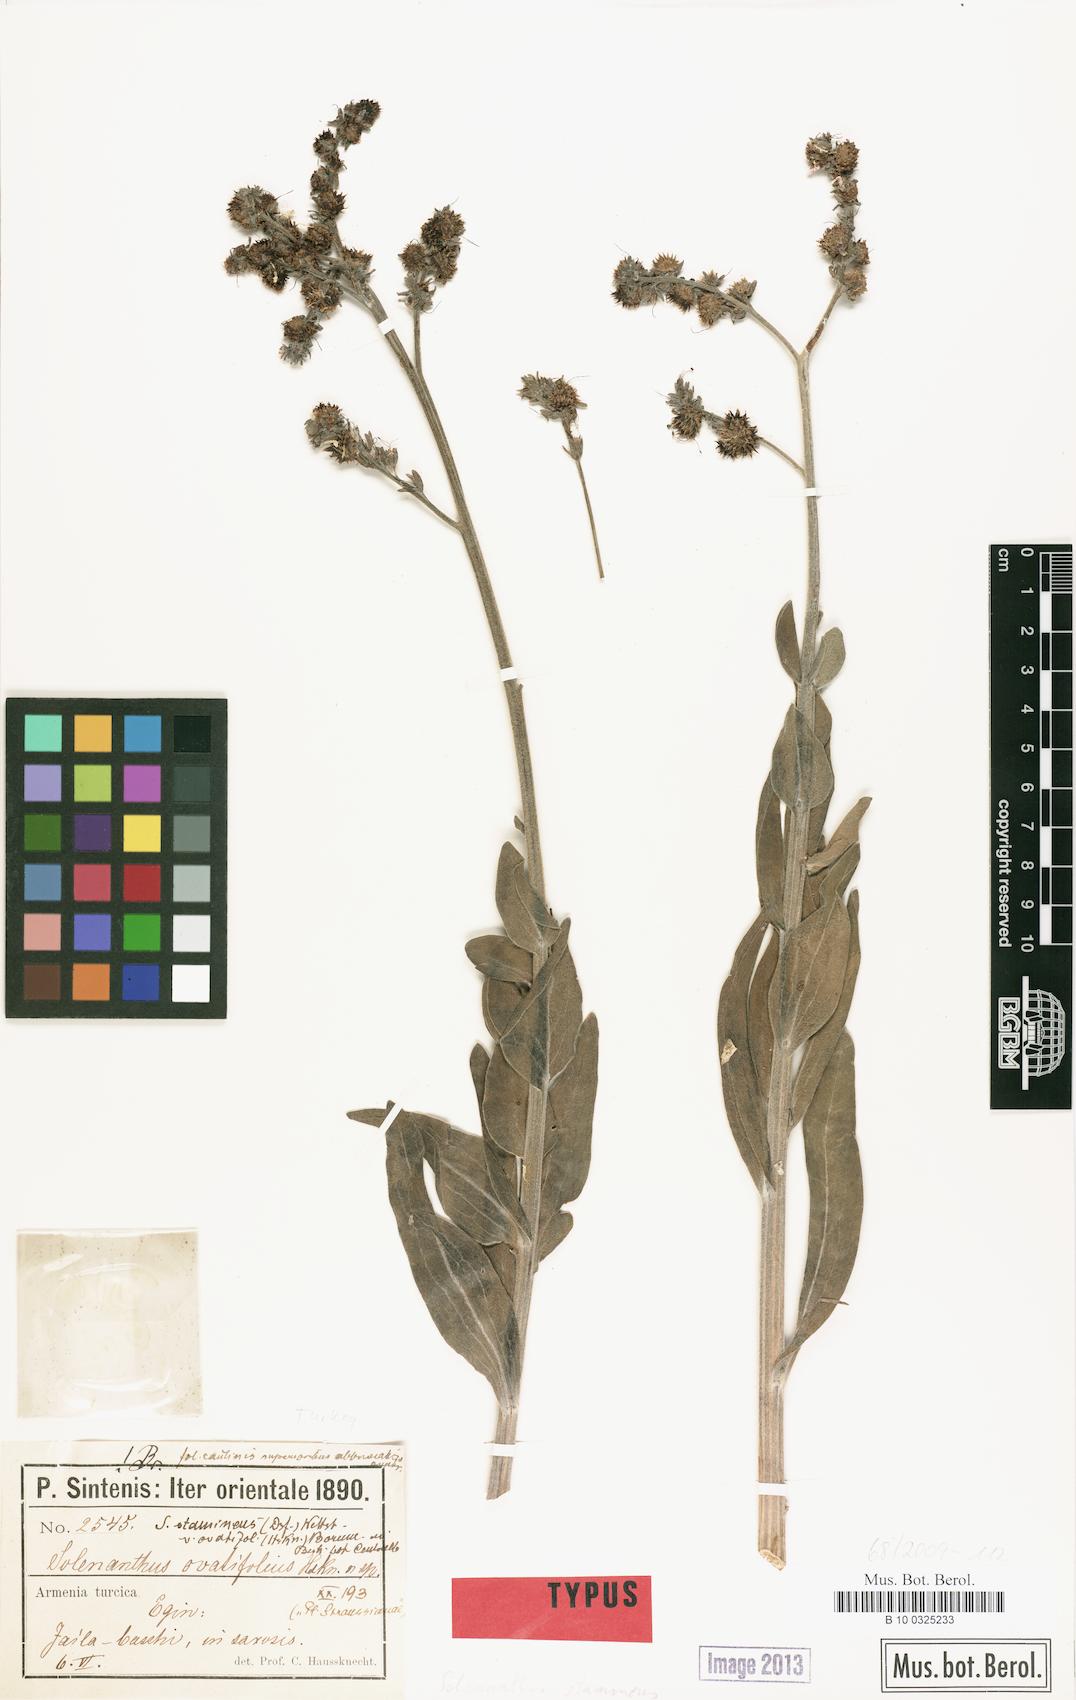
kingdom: Plantae
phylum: Tracheophyta
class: Magnoliopsida
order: Boraginales
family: Boraginaceae
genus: Solenanthus
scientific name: Solenanthus stamineus
